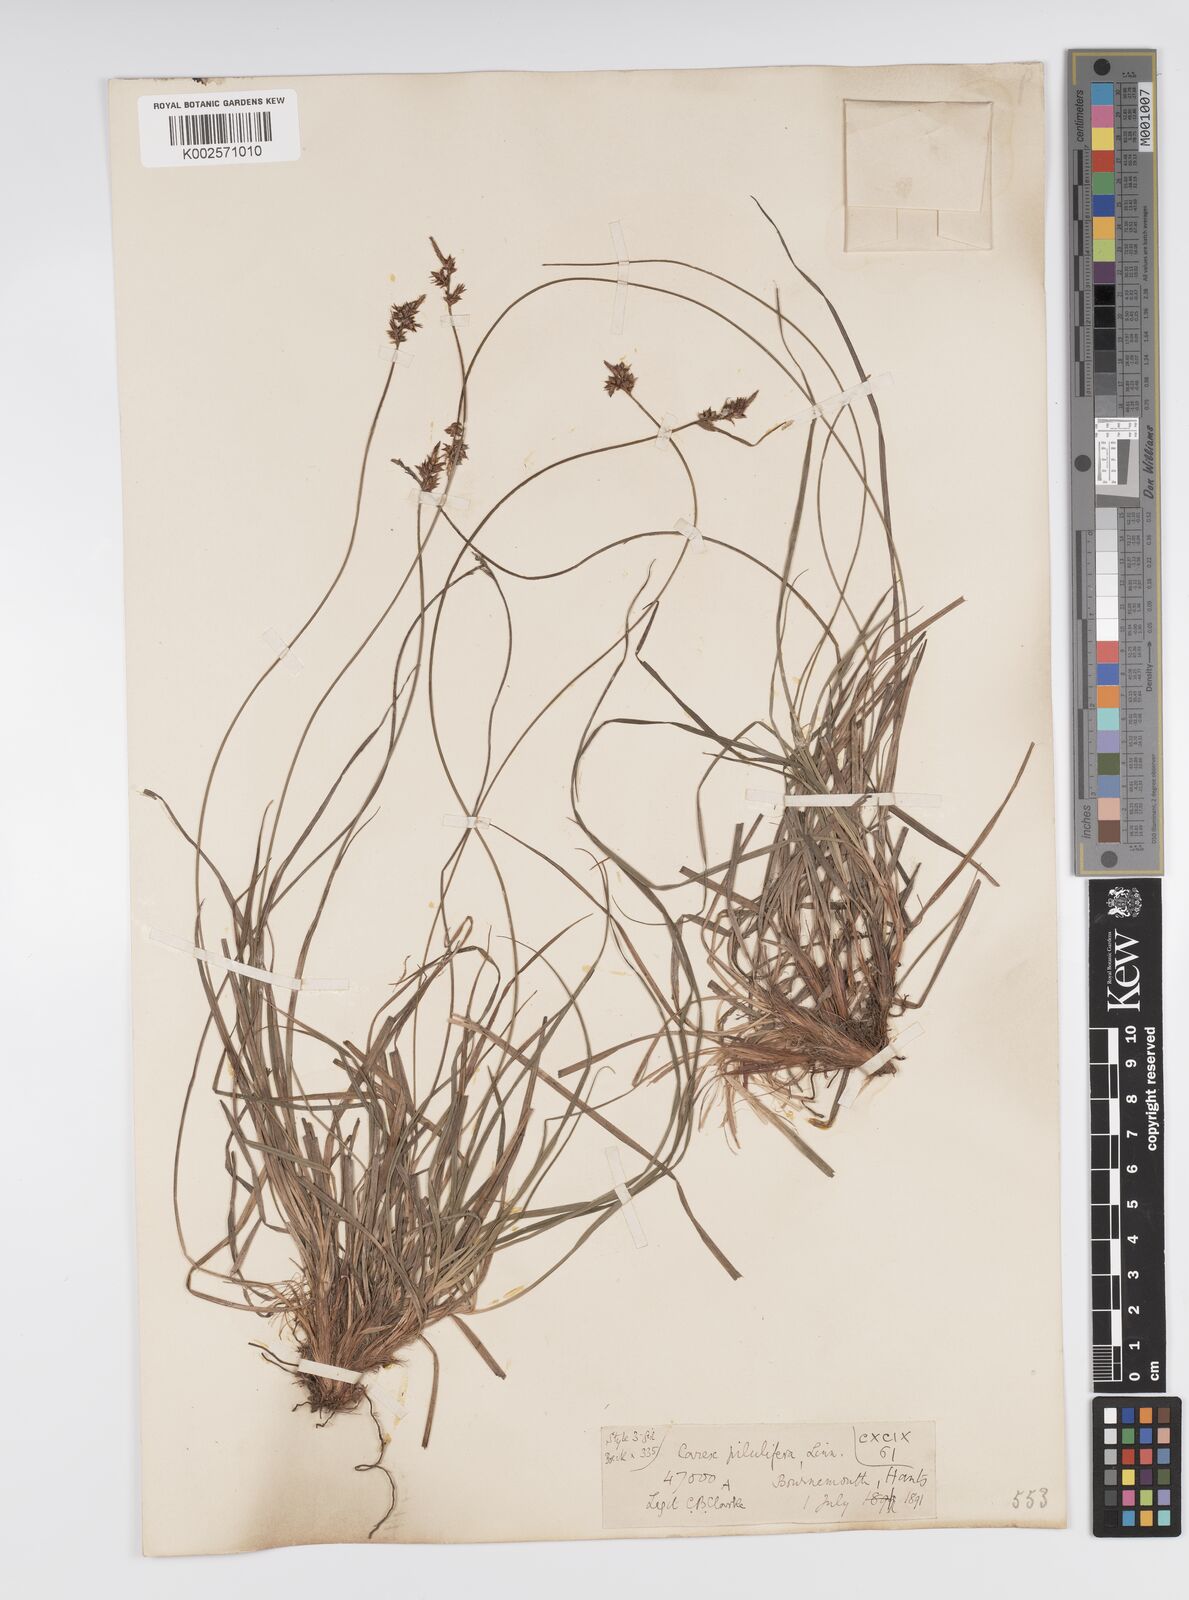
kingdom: Plantae
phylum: Tracheophyta
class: Liliopsida
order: Poales
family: Cyperaceae
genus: Carex
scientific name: Carex praecox
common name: Early sedge
